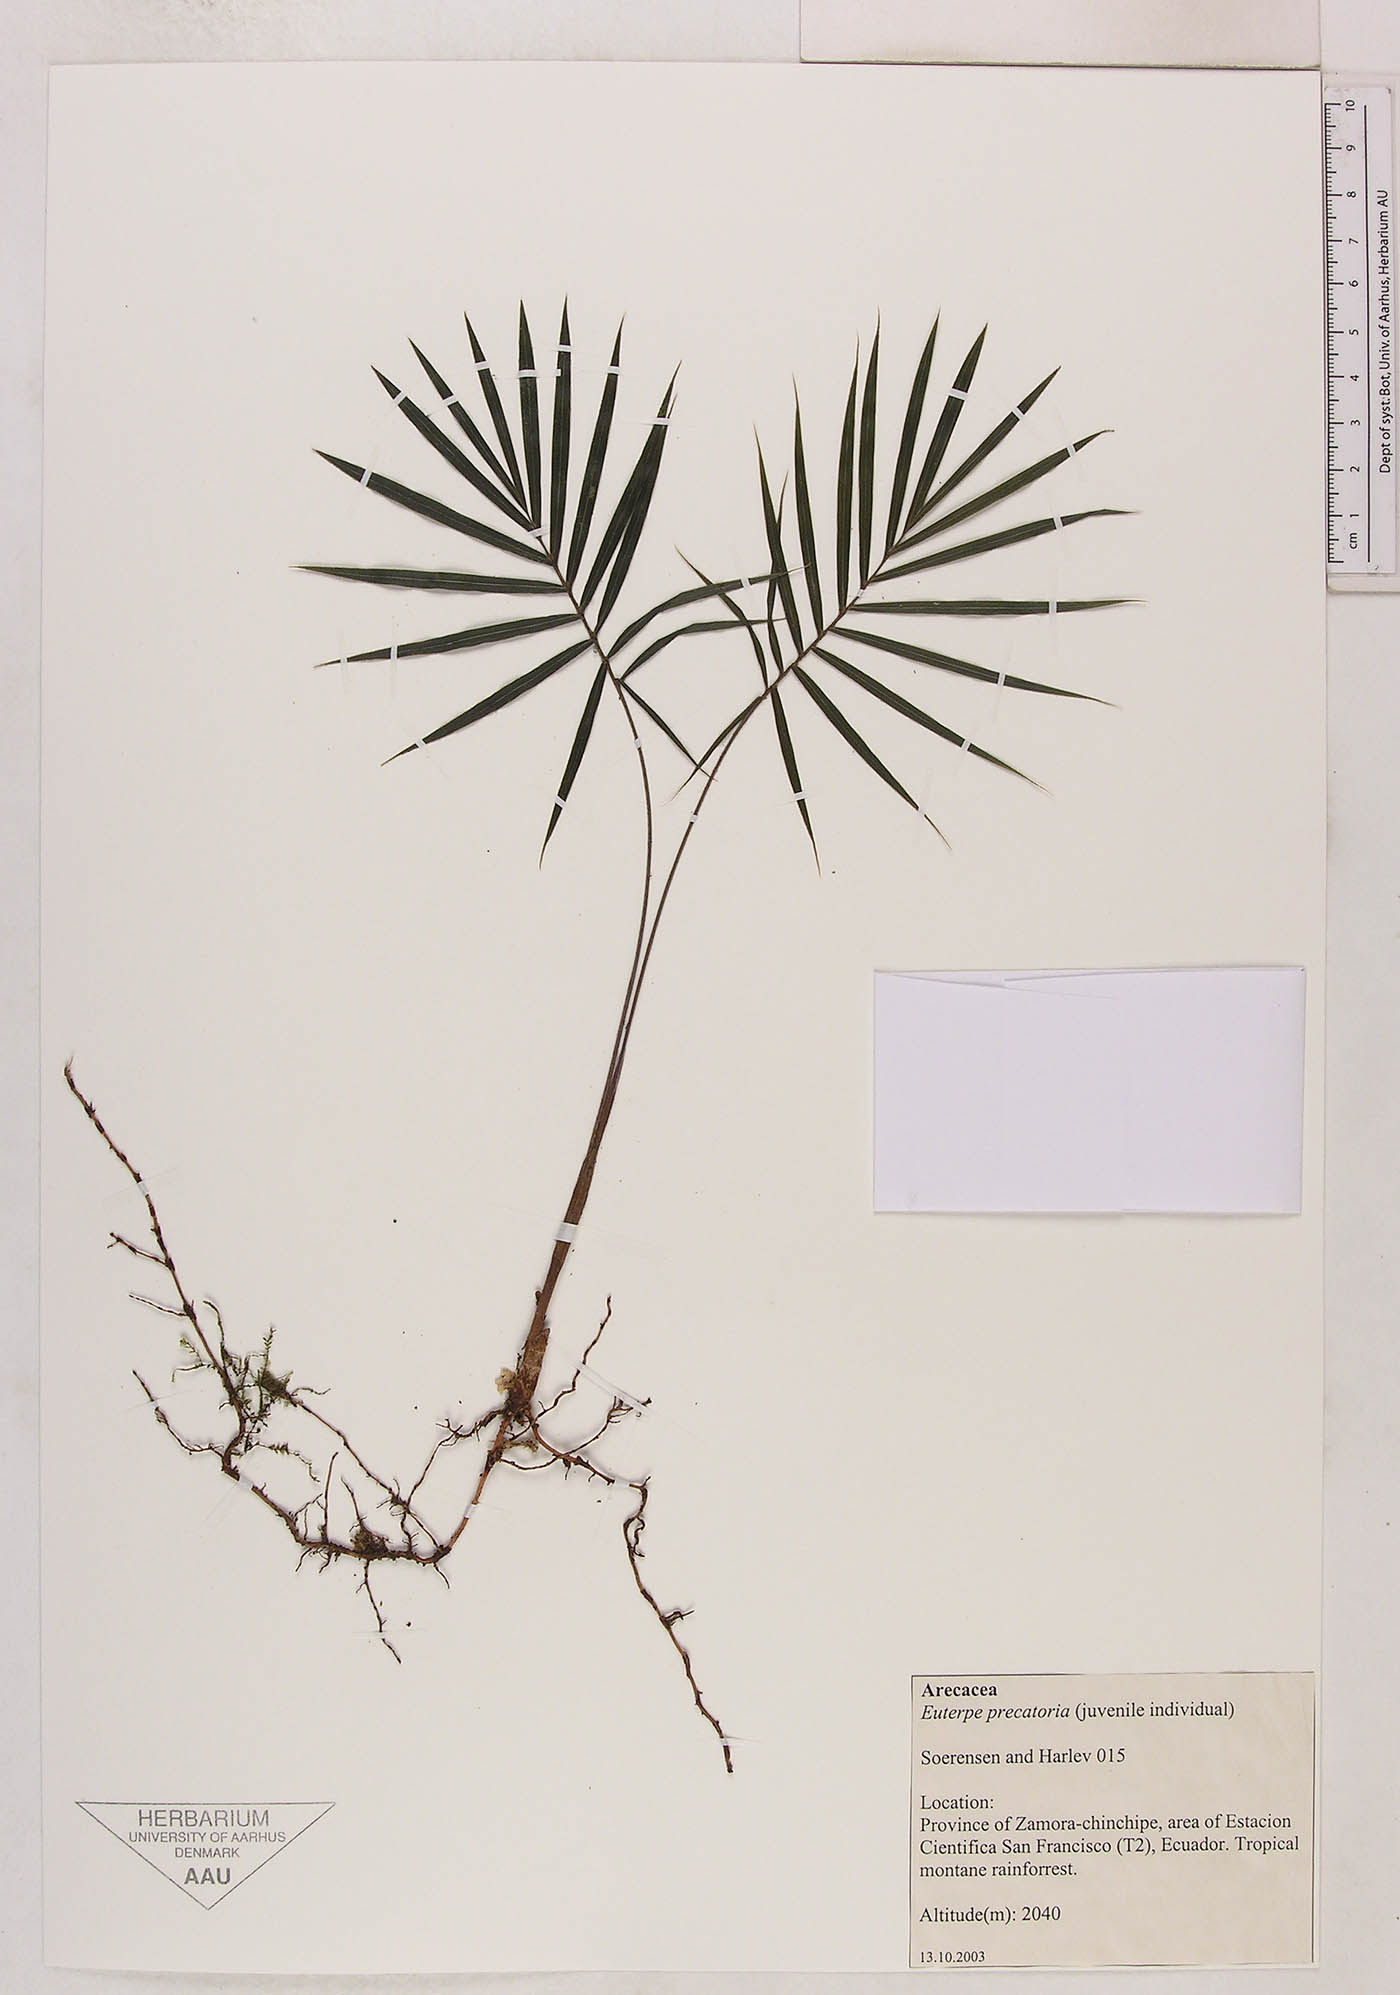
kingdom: Plantae
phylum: Tracheophyta
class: Liliopsida
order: Arecales
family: Arecaceae
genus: Euterpe
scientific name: Euterpe precatoria
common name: Mountain-cabbage
